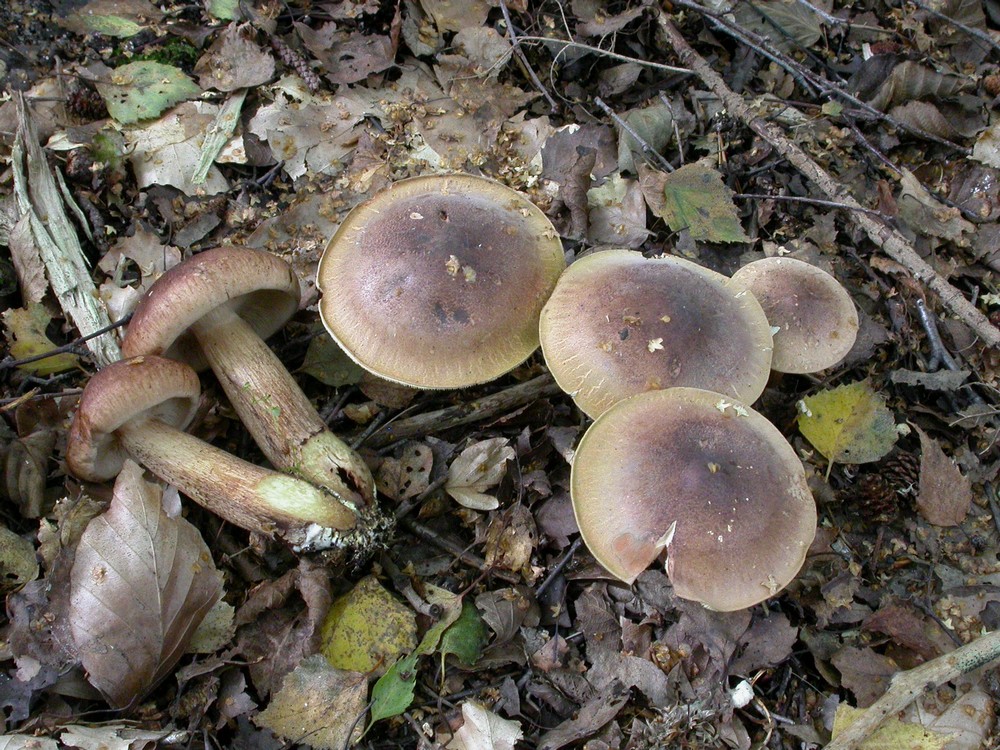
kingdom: Fungi
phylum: Basidiomycota
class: Agaricomycetes
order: Agaricales
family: Tricholomataceae
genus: Tricholoma
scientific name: Tricholoma fulvum
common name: birke-ridderhat
